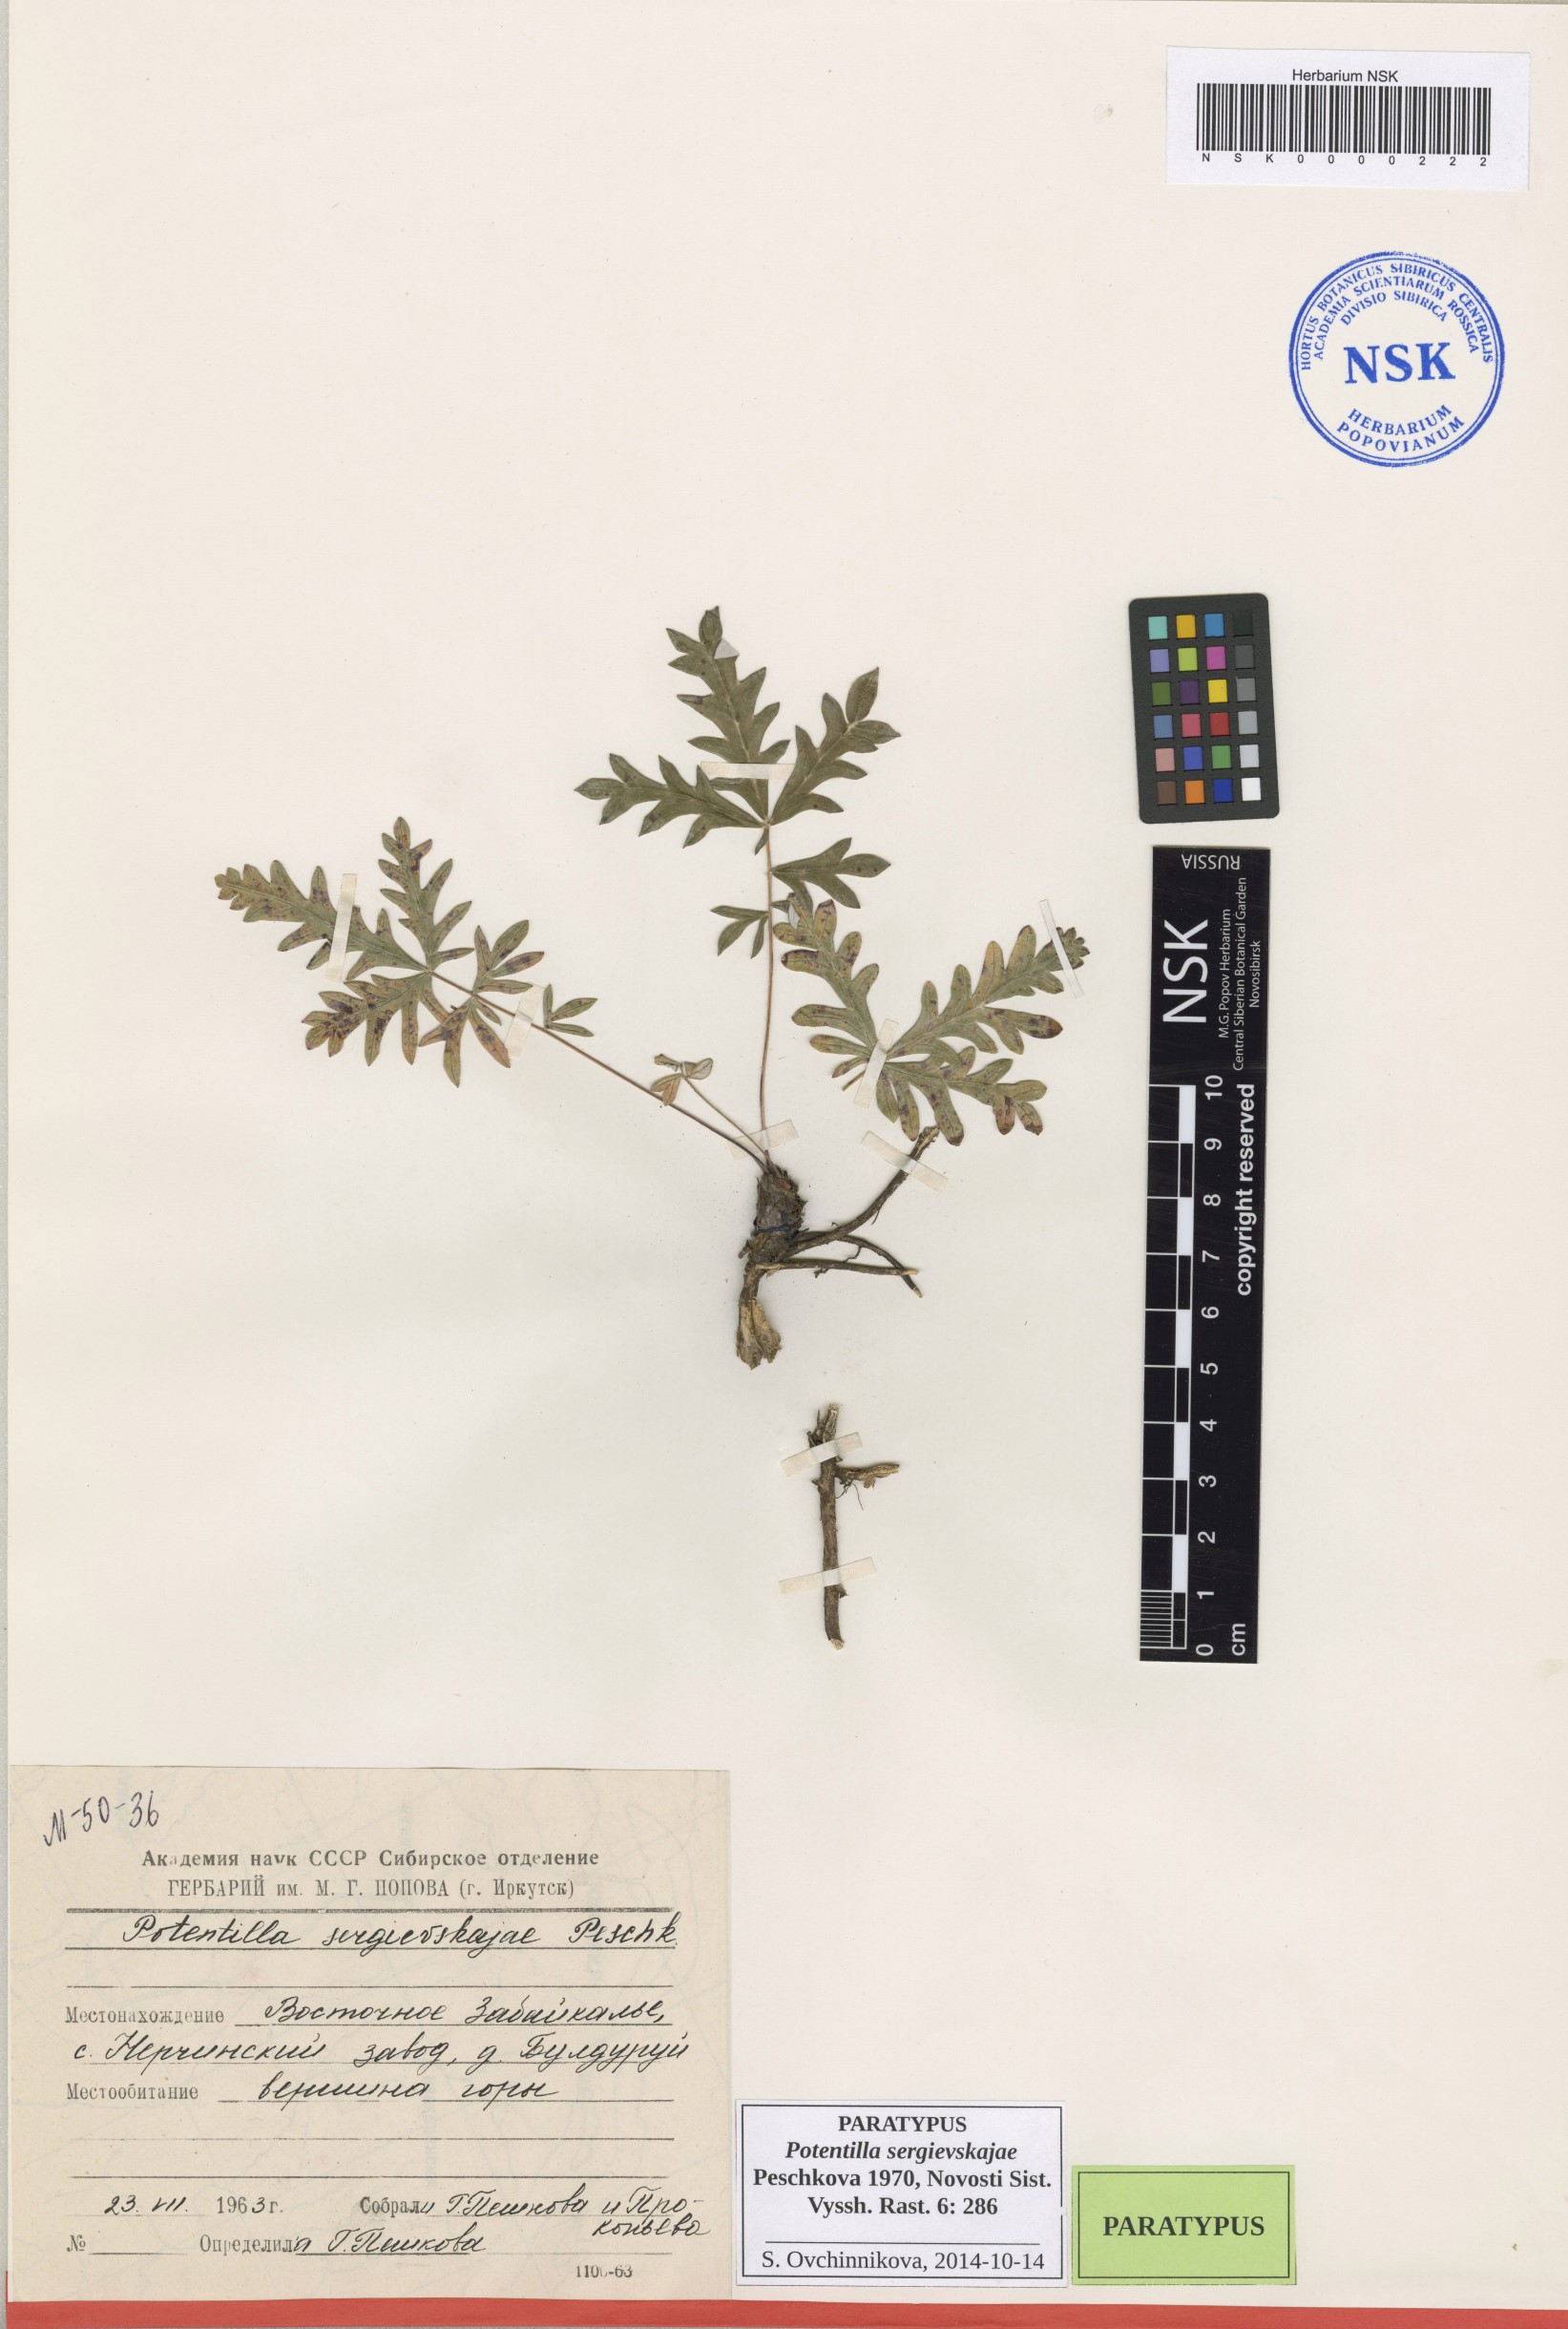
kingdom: Plantae
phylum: Tracheophyta
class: Magnoliopsida
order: Rosales
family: Rosaceae
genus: Potentilla
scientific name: Potentilla sergievskajae
